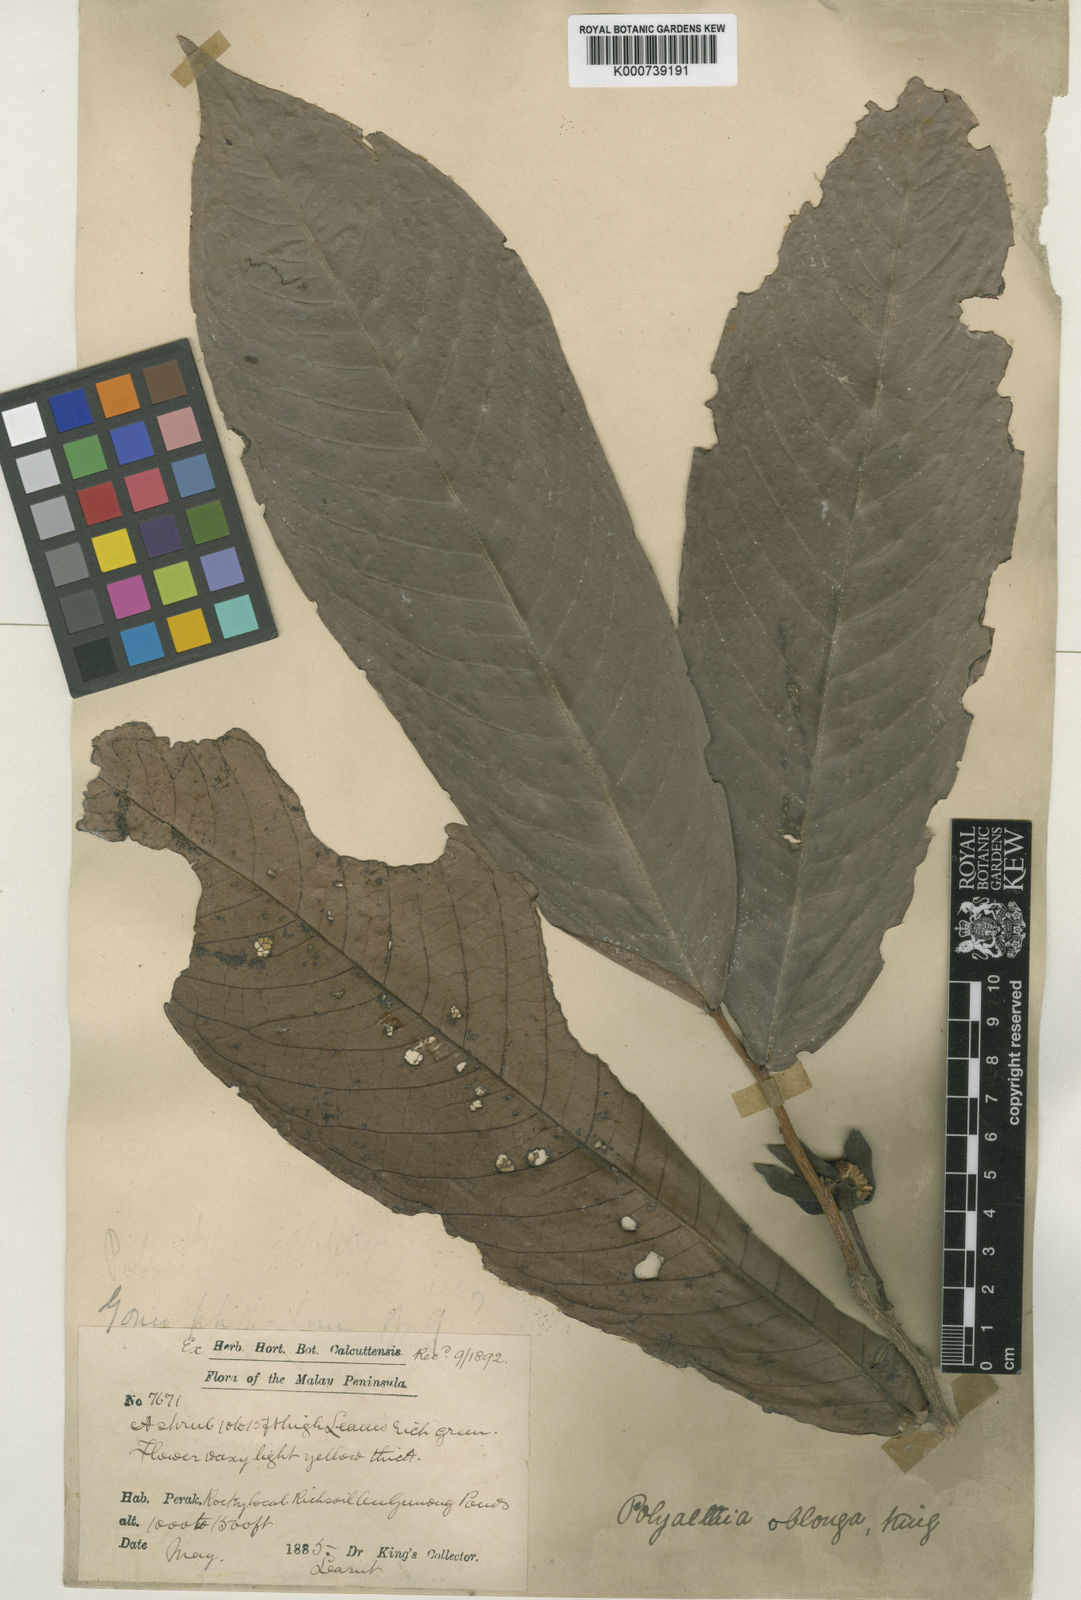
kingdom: Plantae
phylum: Tracheophyta
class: Magnoliopsida
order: Magnoliales
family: Annonaceae
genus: Polyalthia
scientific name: Polyalthia oblonga
